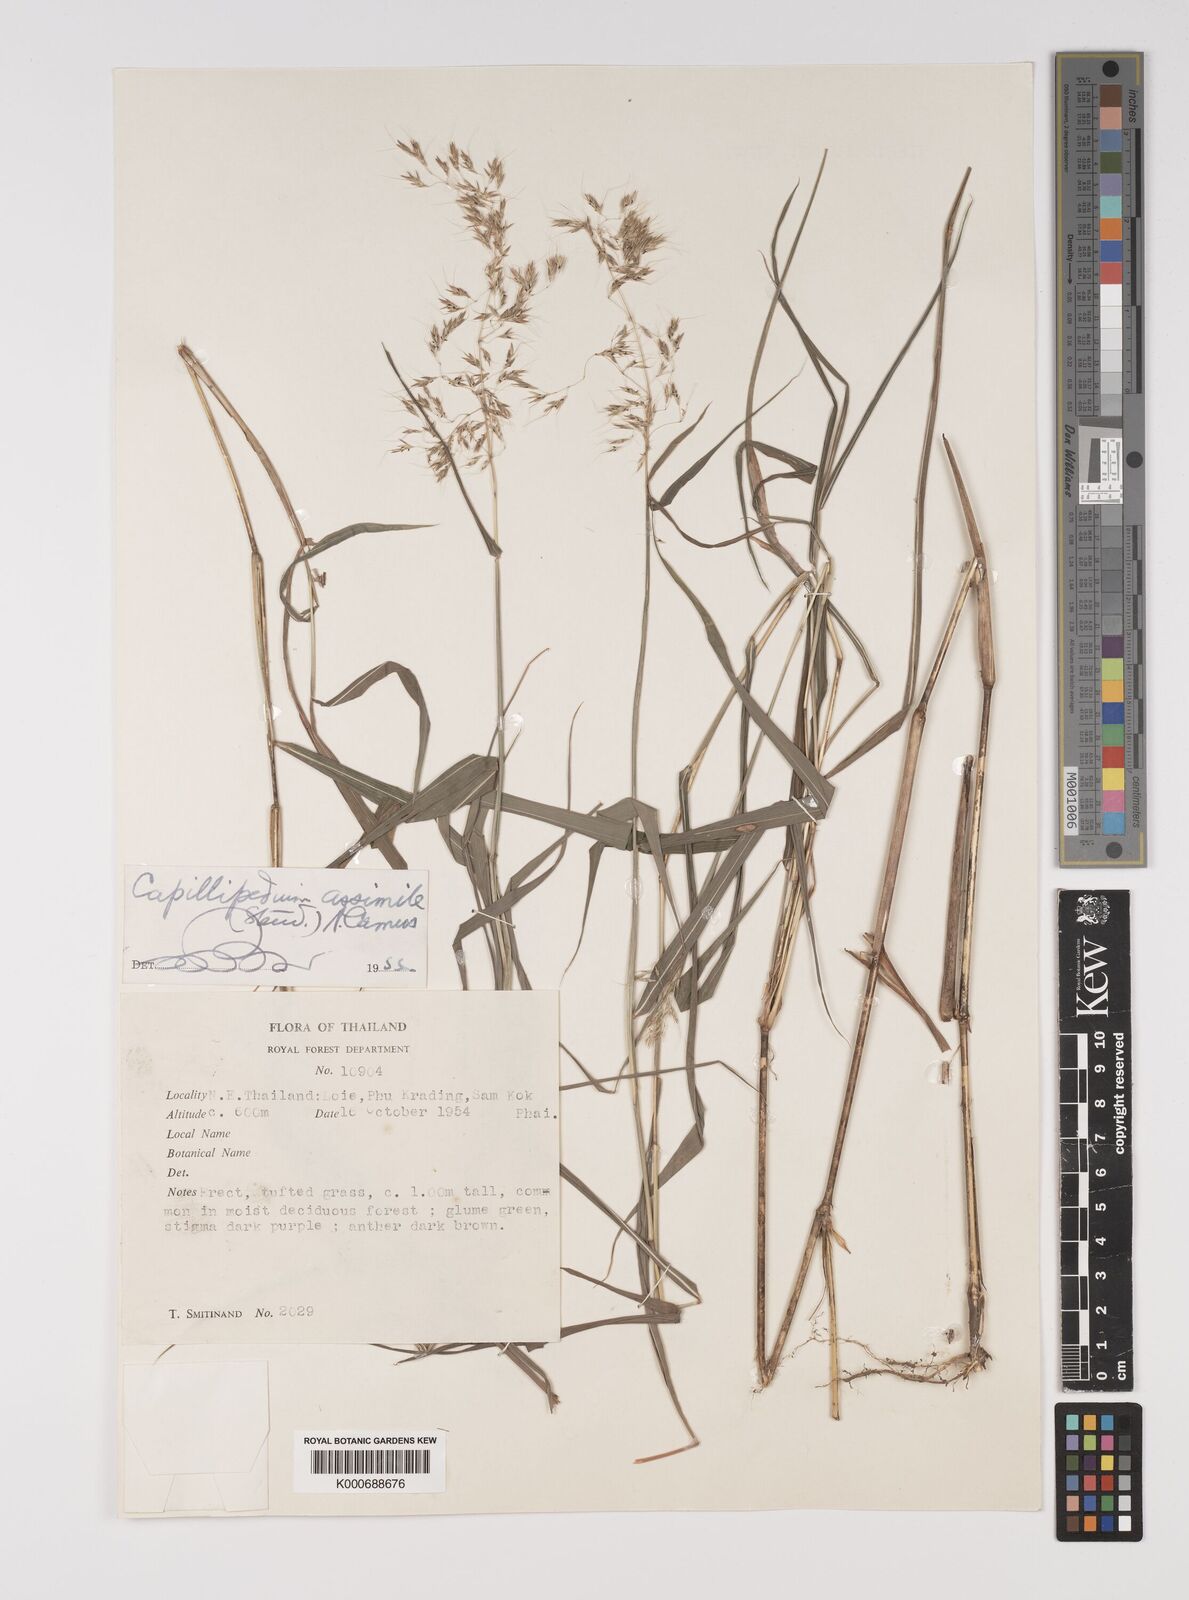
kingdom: Plantae
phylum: Tracheophyta
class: Liliopsida
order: Poales
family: Poaceae
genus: Capillipedium
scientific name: Capillipedium assimile
